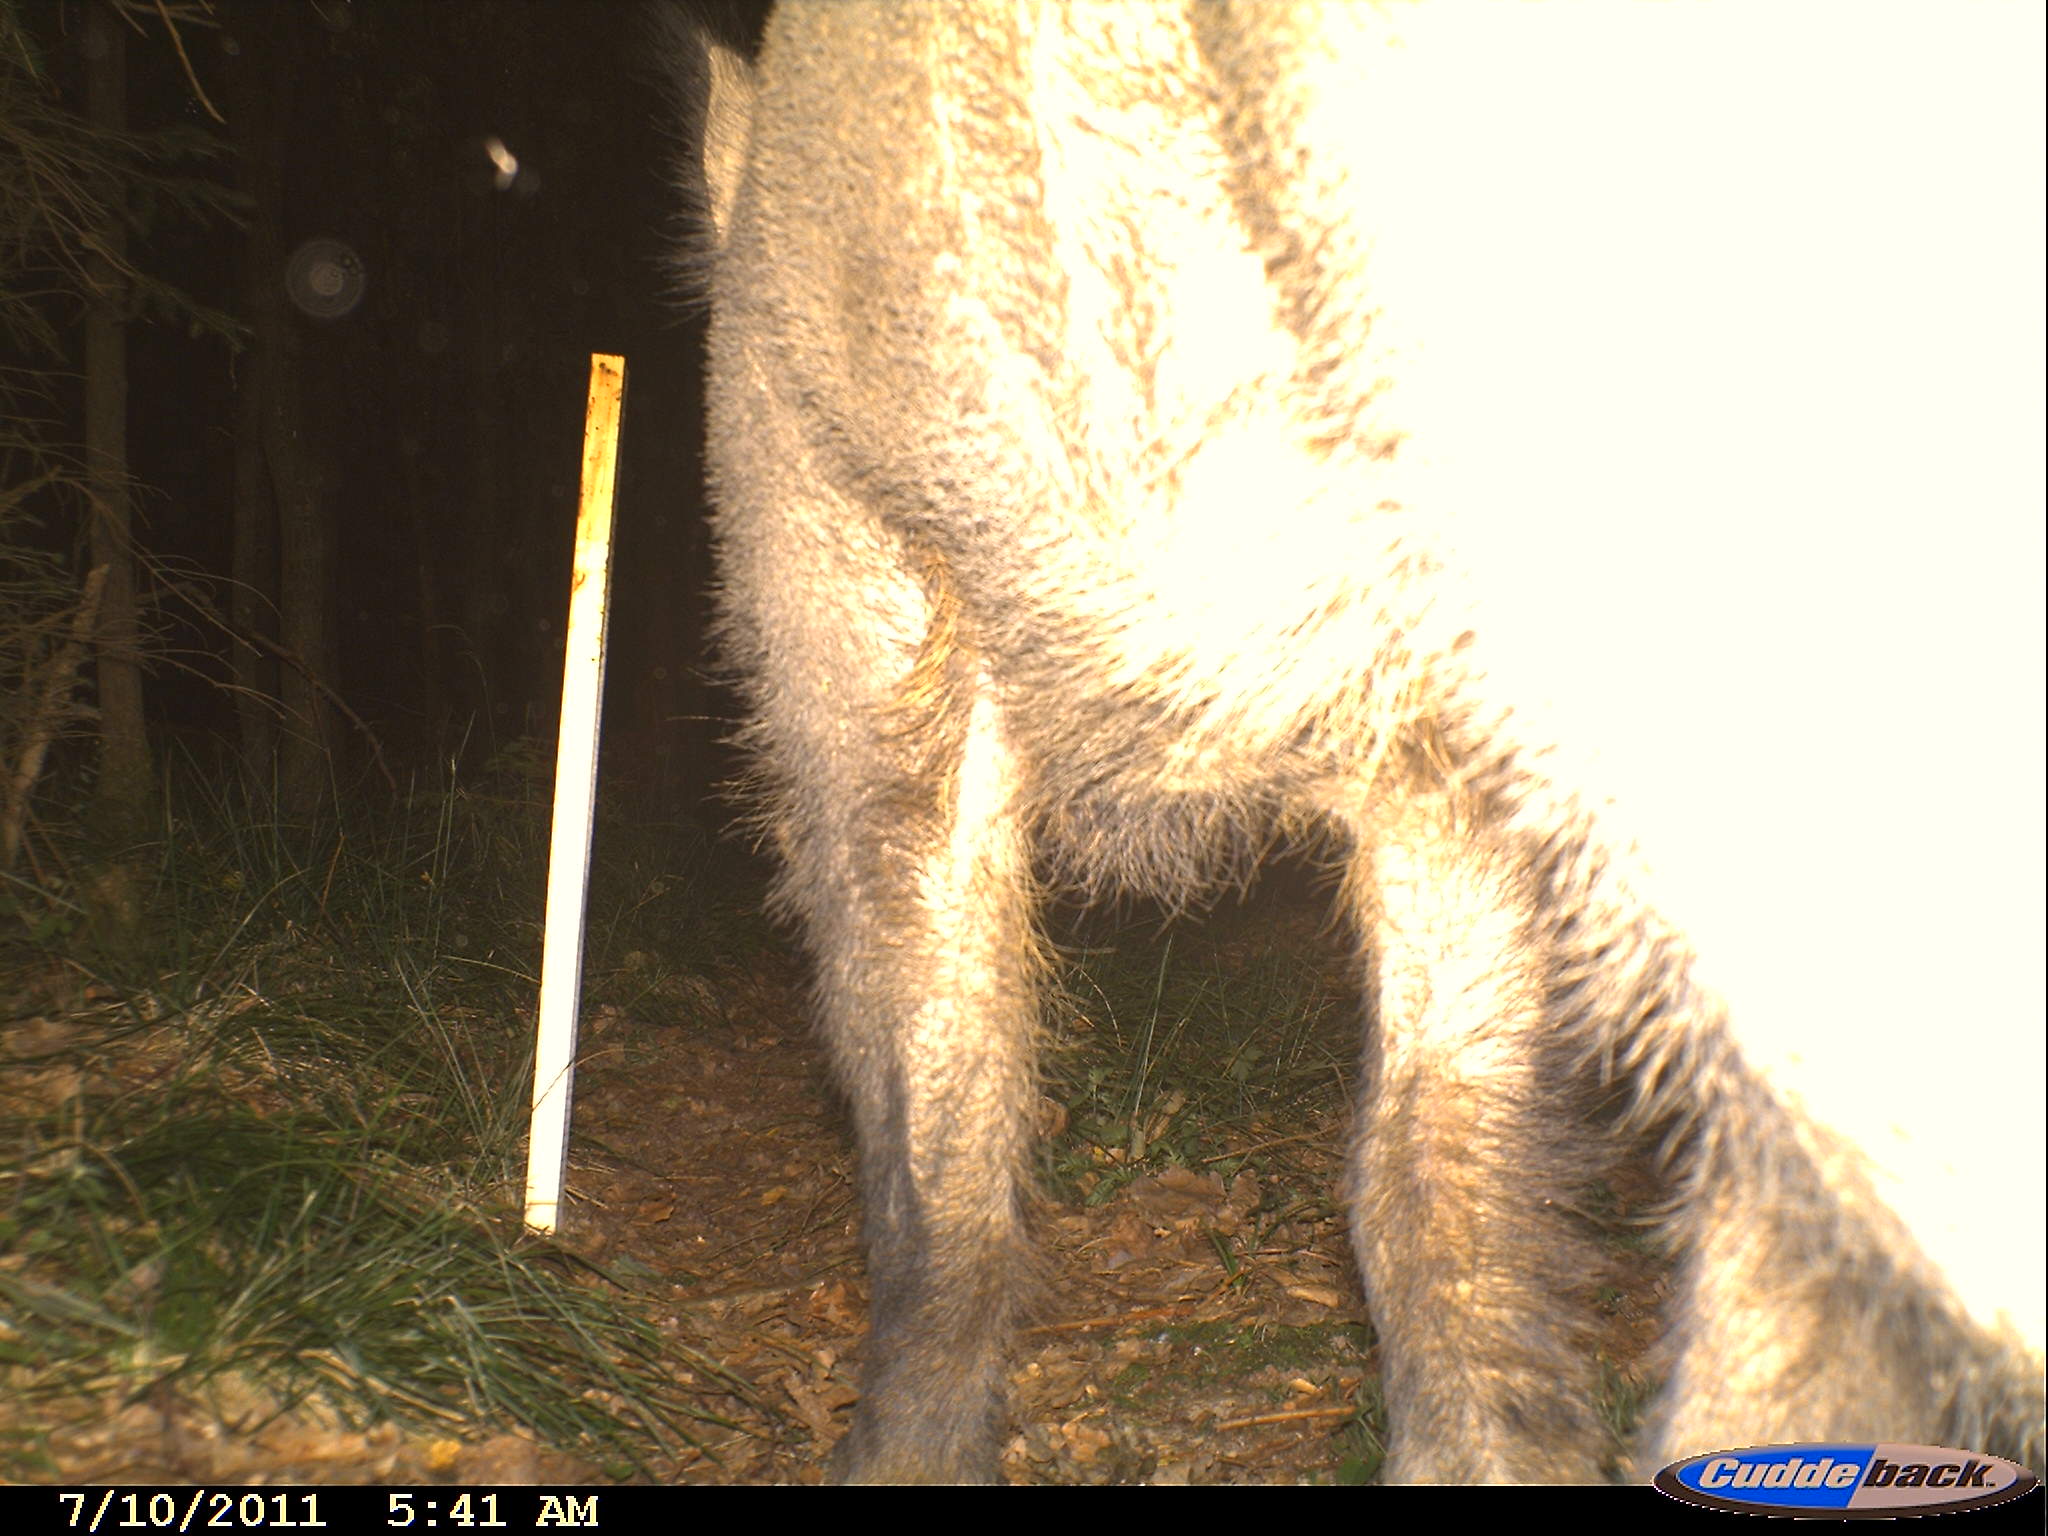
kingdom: Animalia
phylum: Chordata
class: Mammalia
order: Artiodactyla
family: Suidae
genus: Sus
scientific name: Sus scrofa
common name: Wild boar
